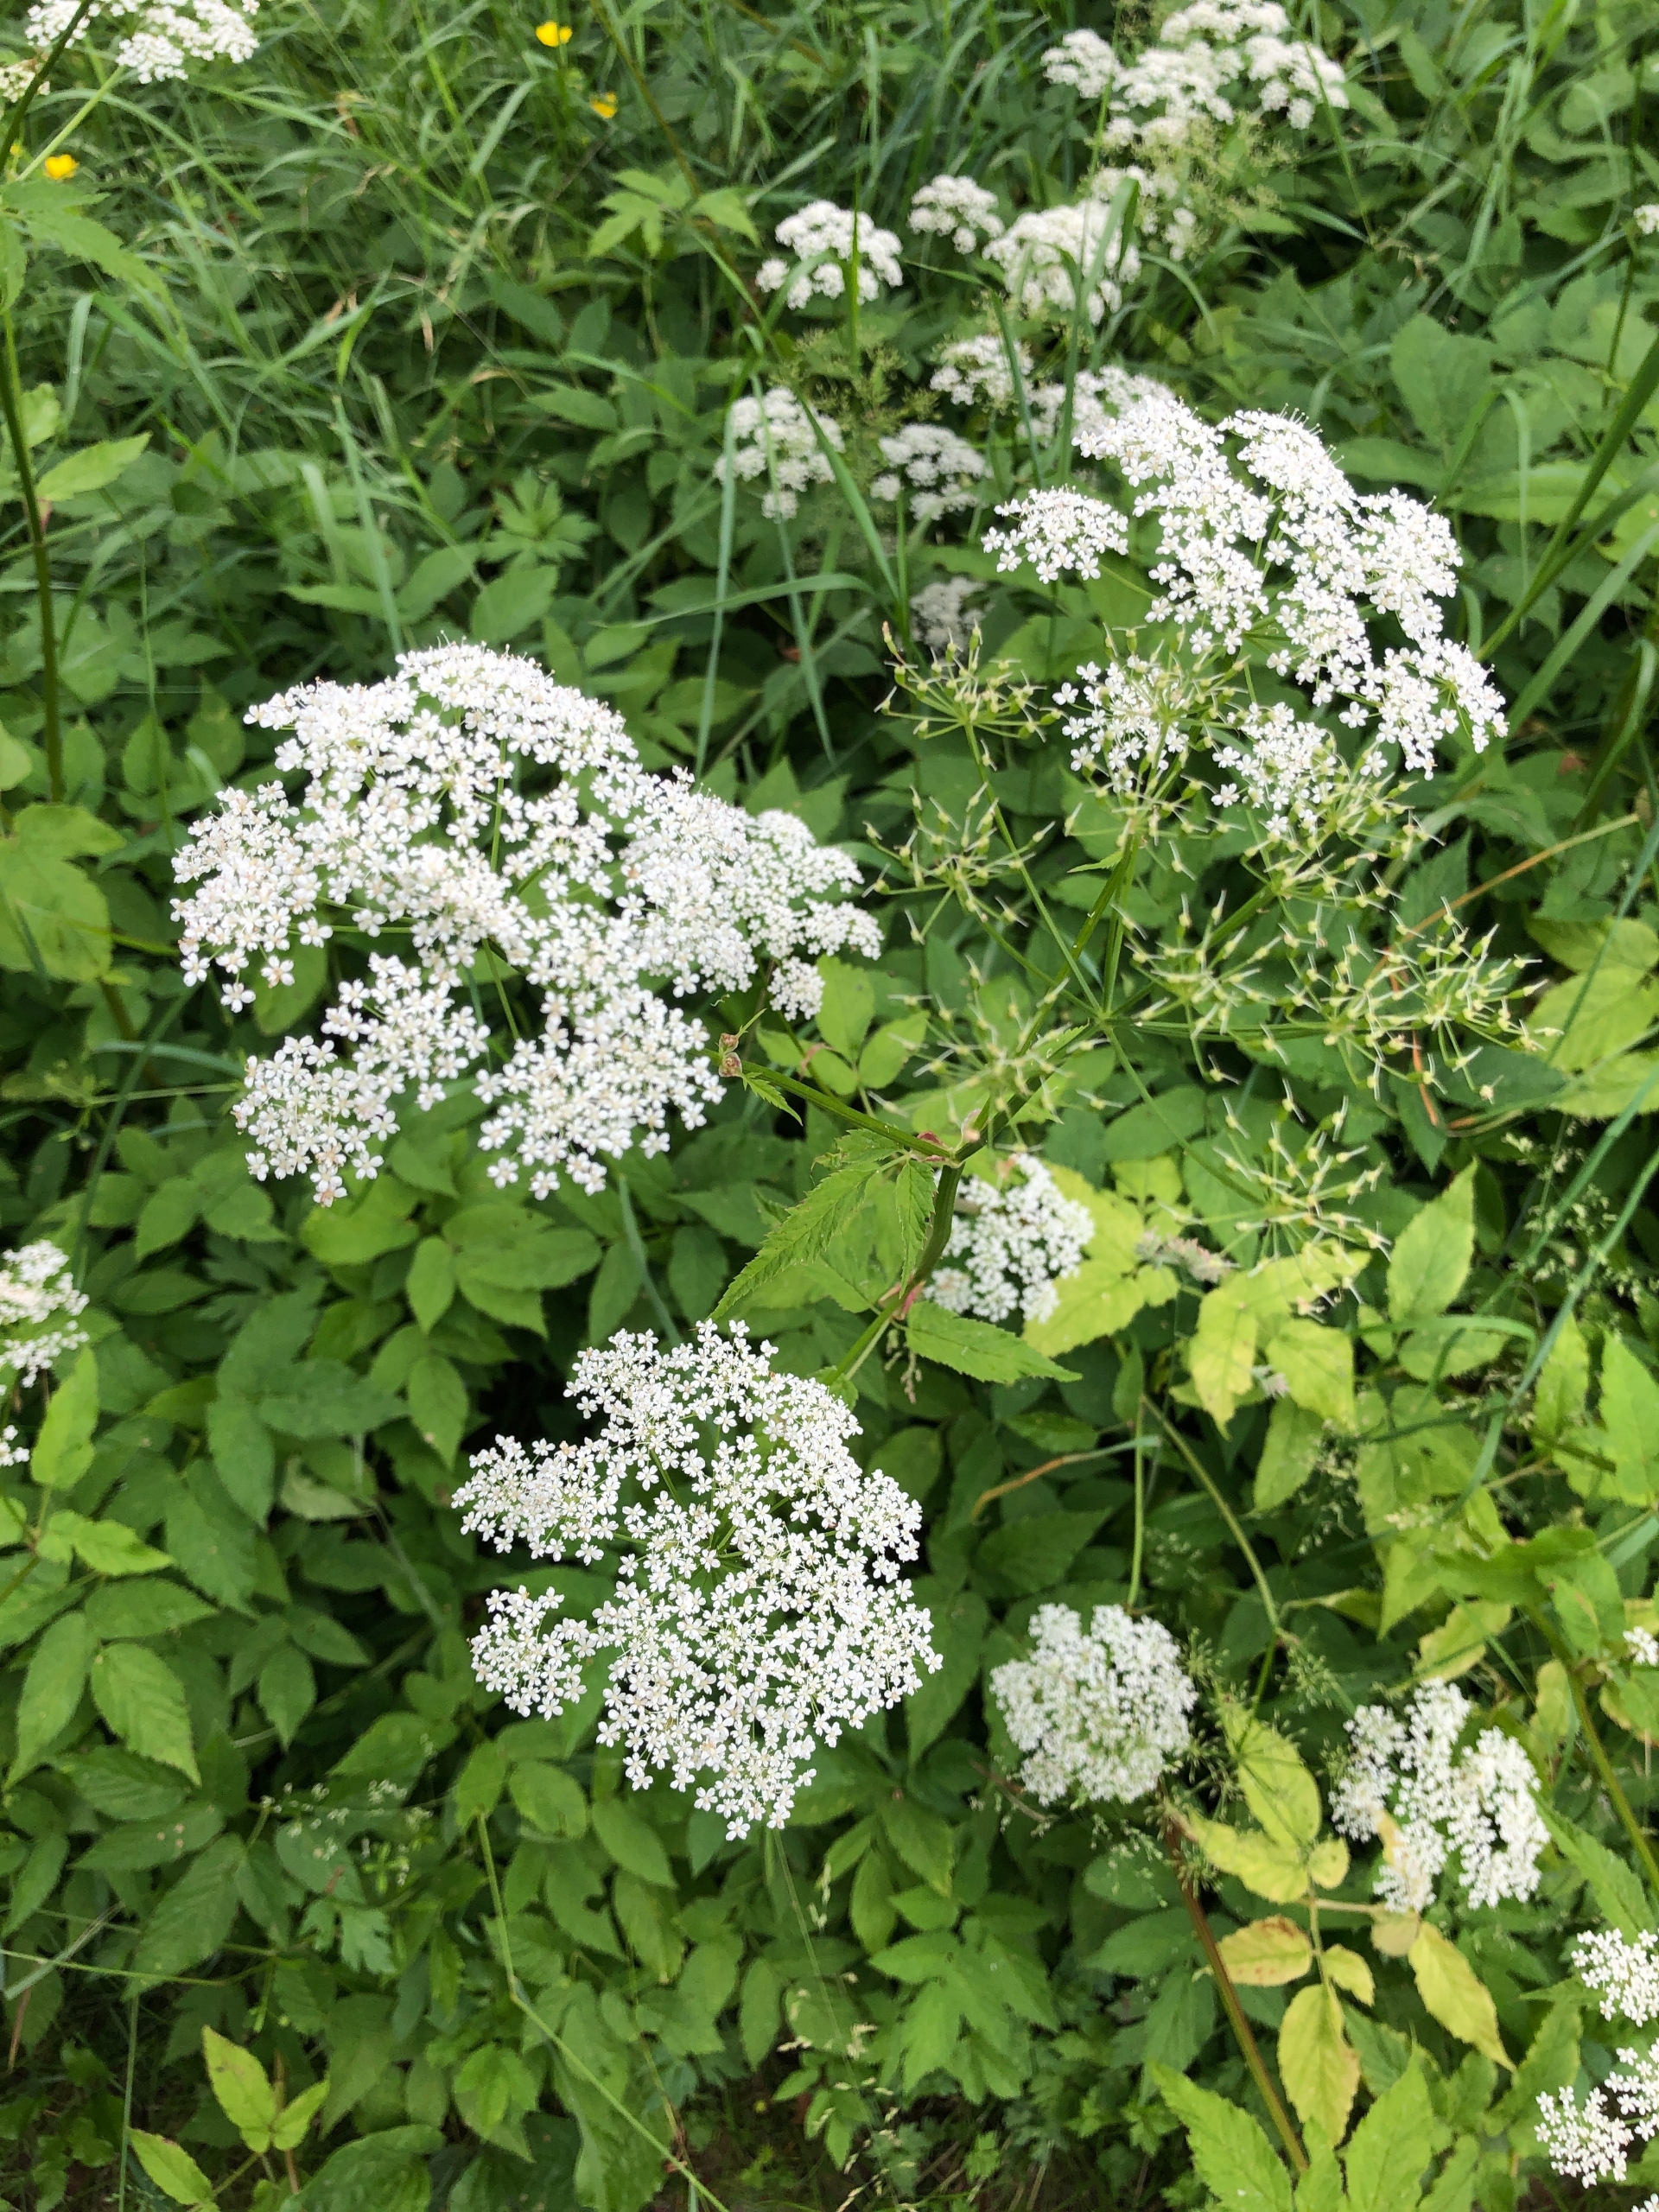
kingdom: Plantae
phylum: Tracheophyta
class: Magnoliopsida
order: Apiales
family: Apiaceae
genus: Aegopodium
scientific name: Aegopodium podagraria
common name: Skvalderkål
